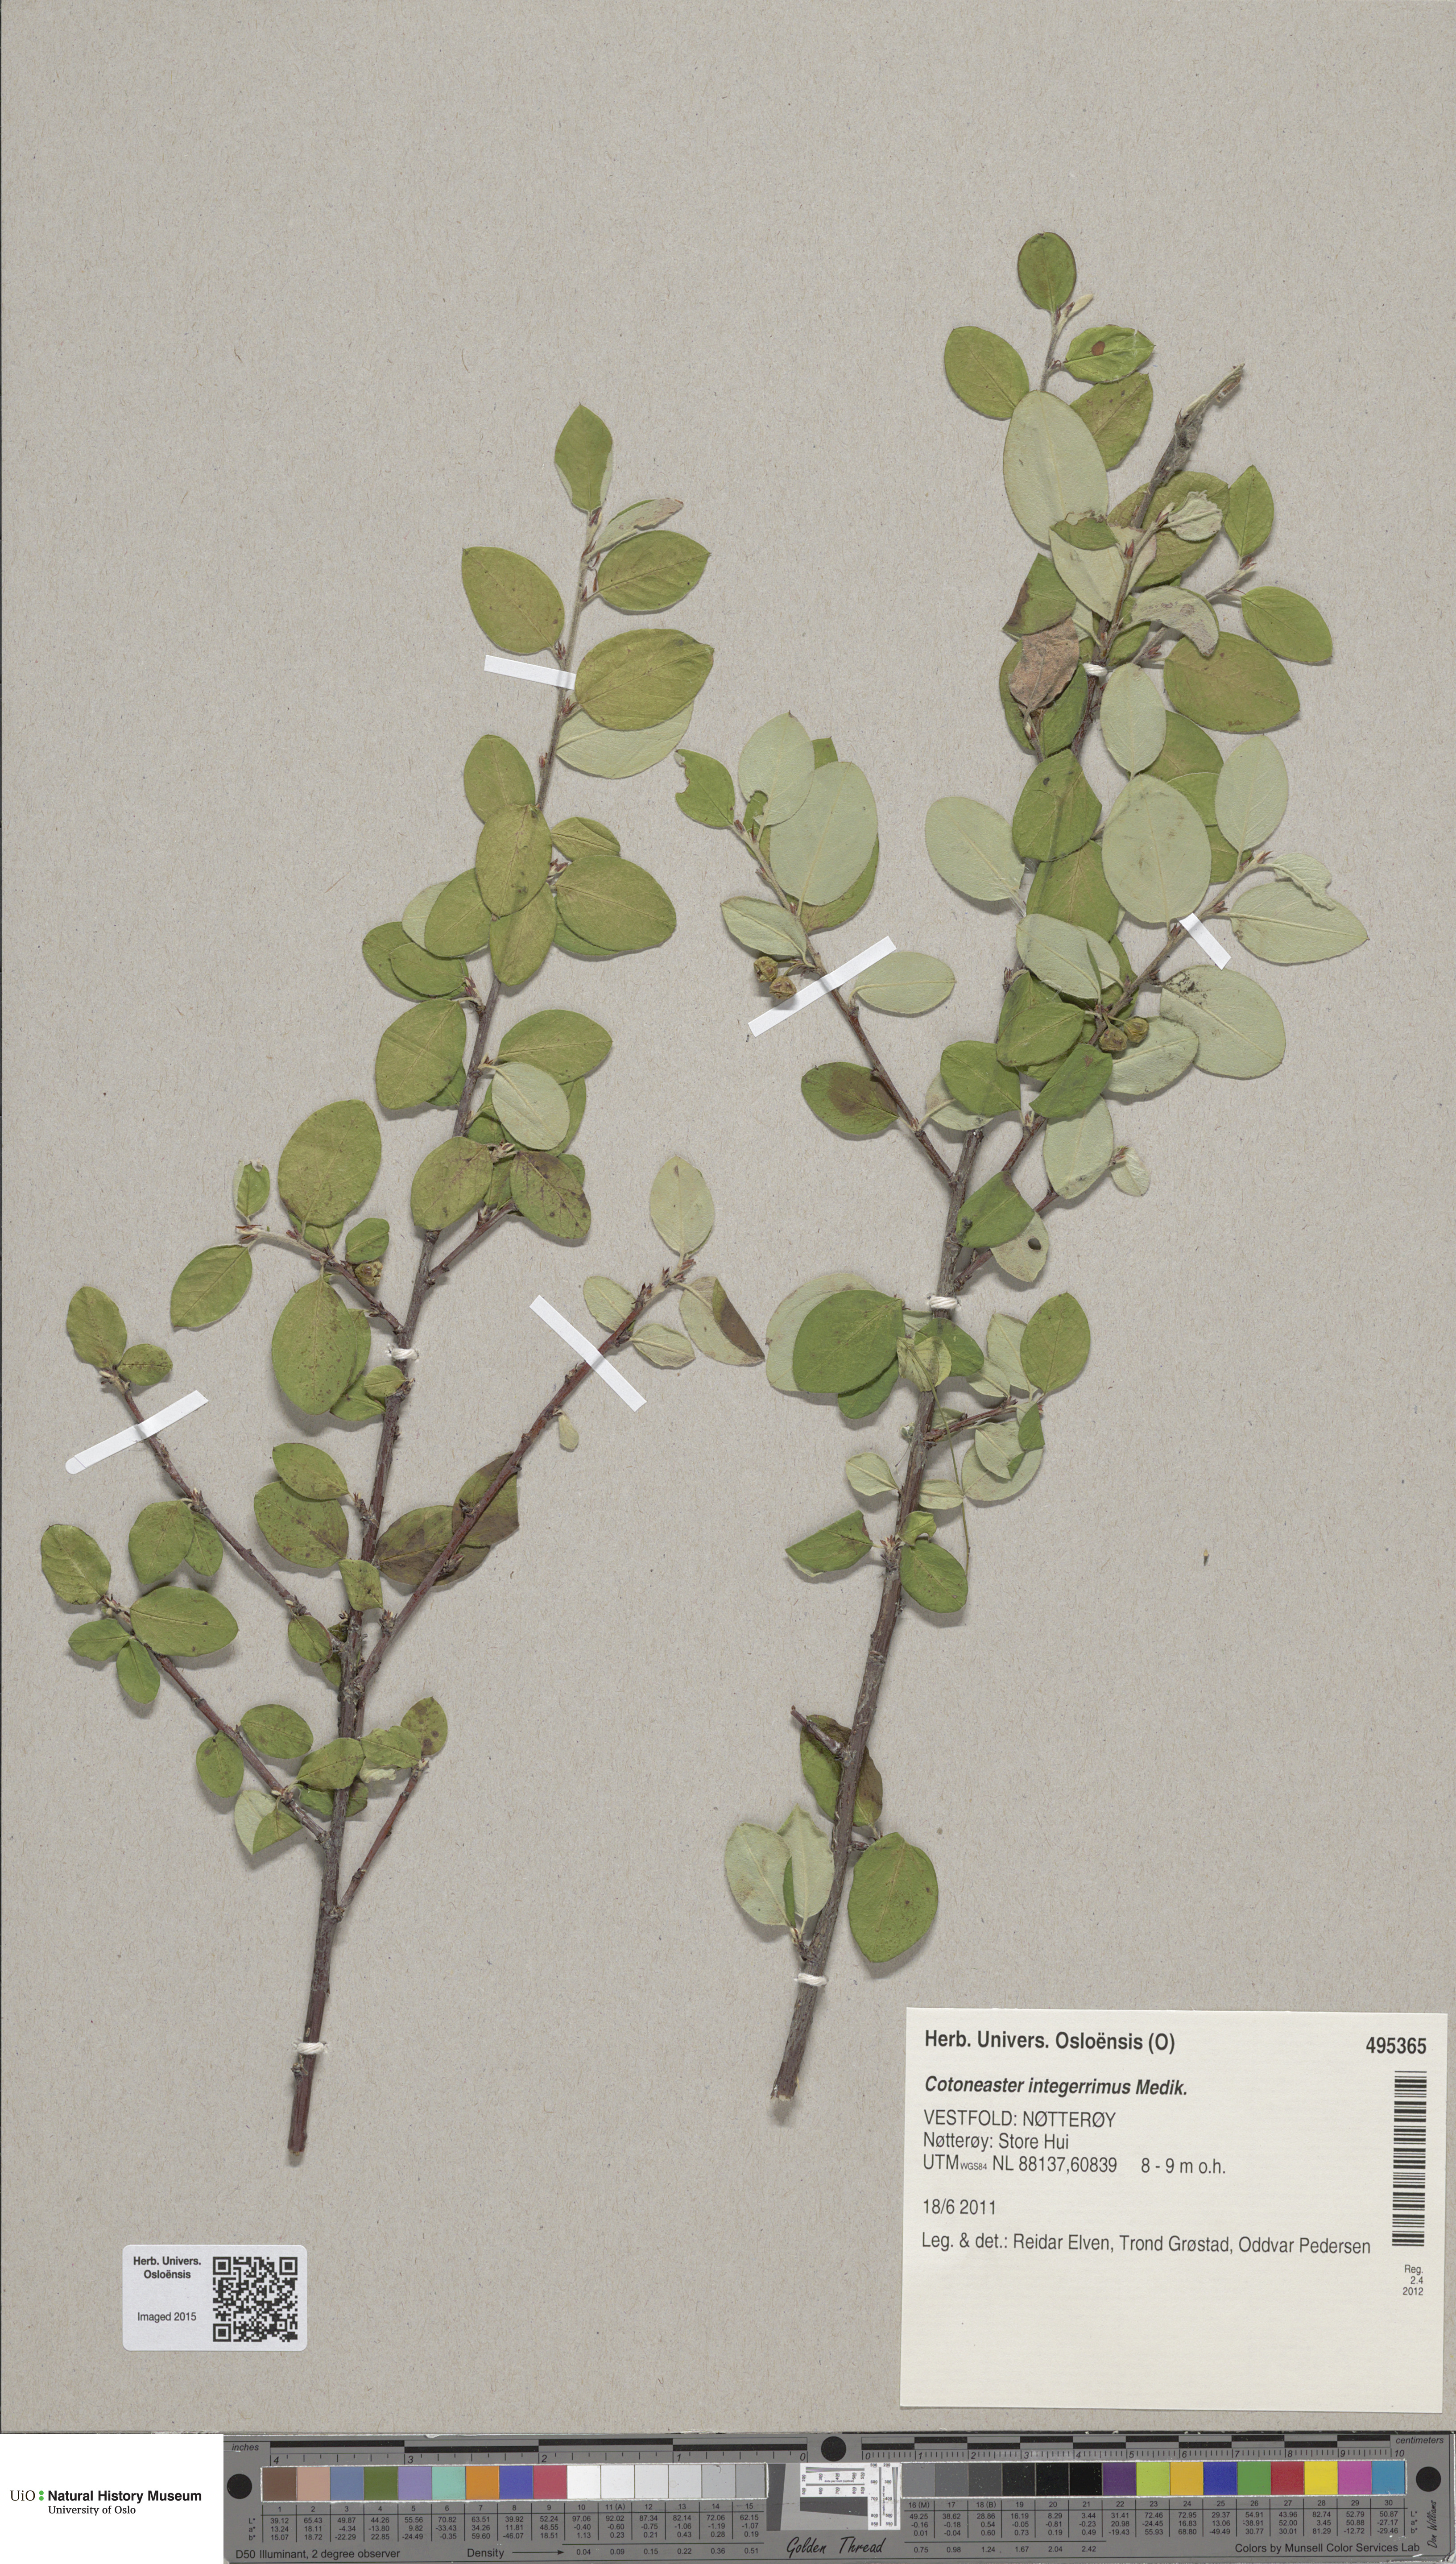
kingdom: Plantae
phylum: Tracheophyta
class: Magnoliopsida
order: Rosales
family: Rosaceae
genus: Cotoneaster
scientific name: Cotoneaster integerrimus
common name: Wild cotoneaster
